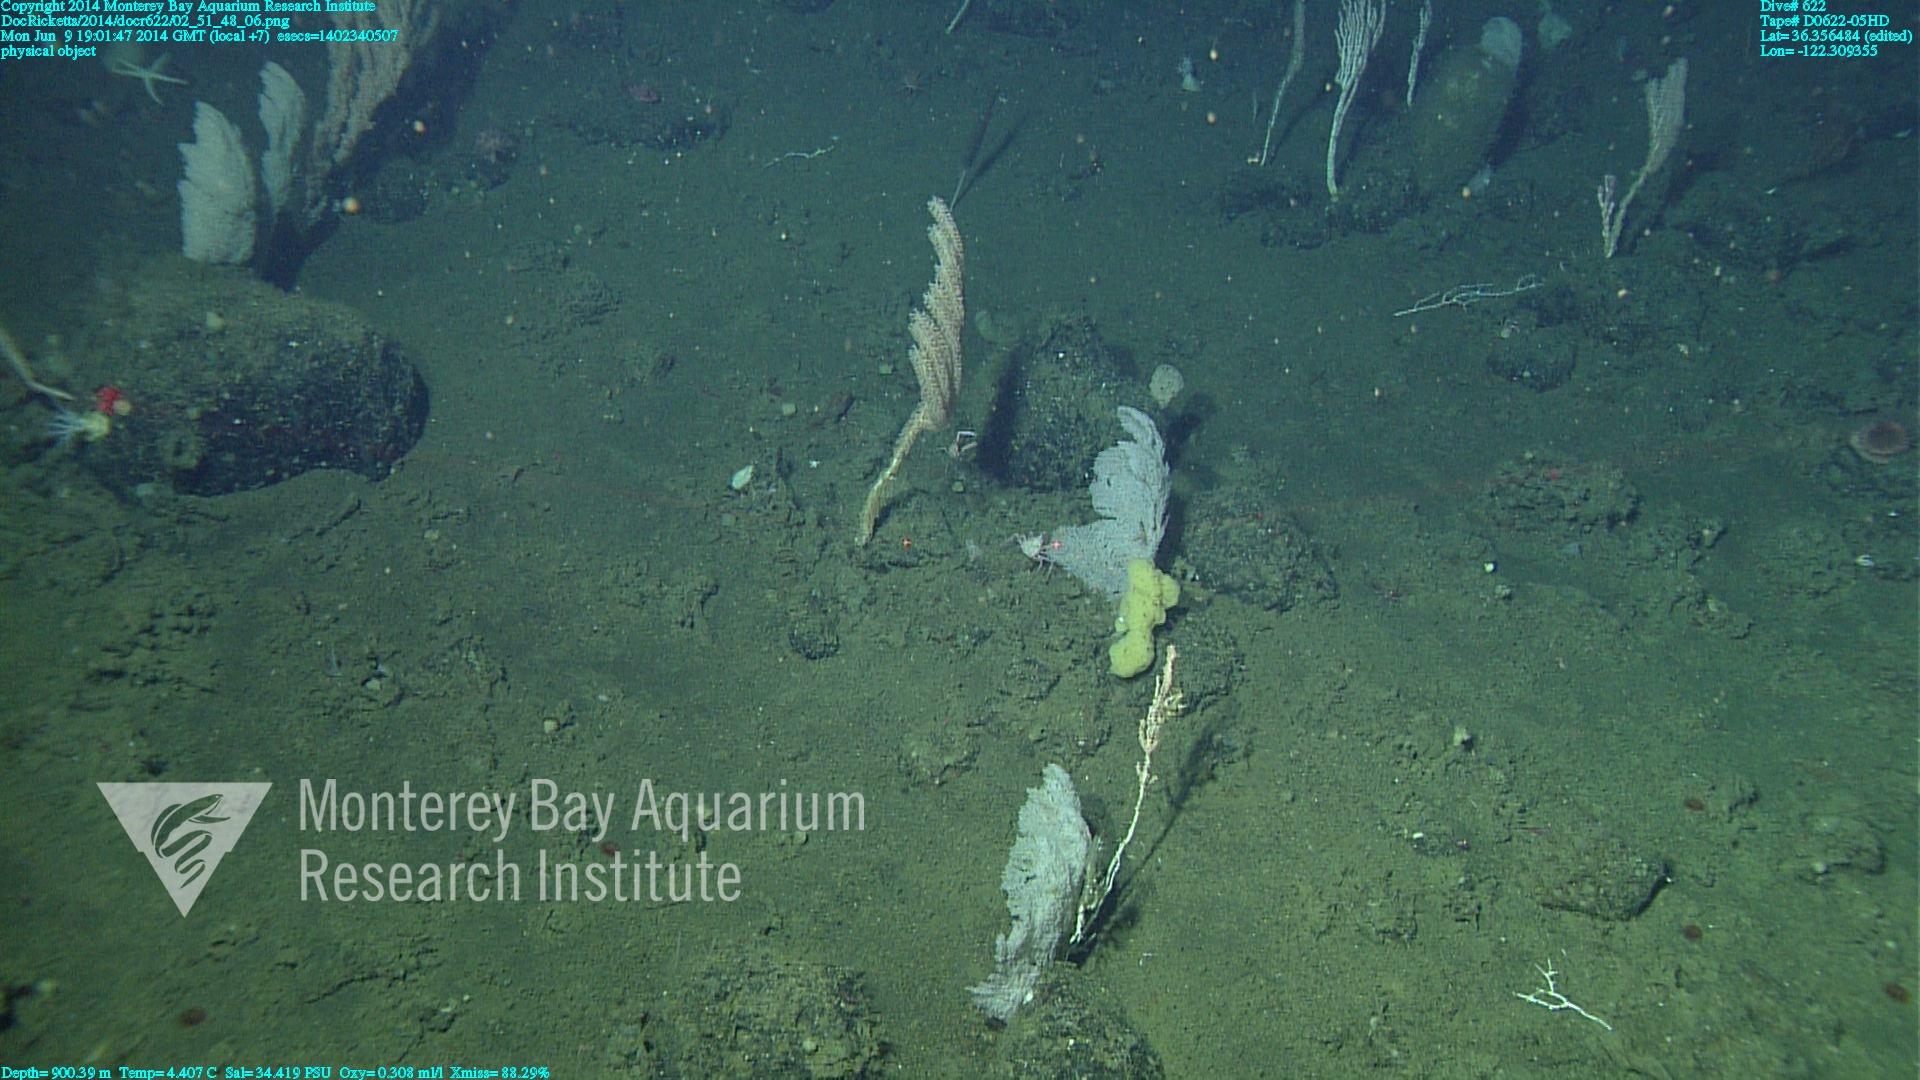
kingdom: Animalia
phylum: Cnidaria
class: Anthozoa
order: Scleralcyonacea
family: Primnoidae
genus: Parastenella
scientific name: Parastenella
